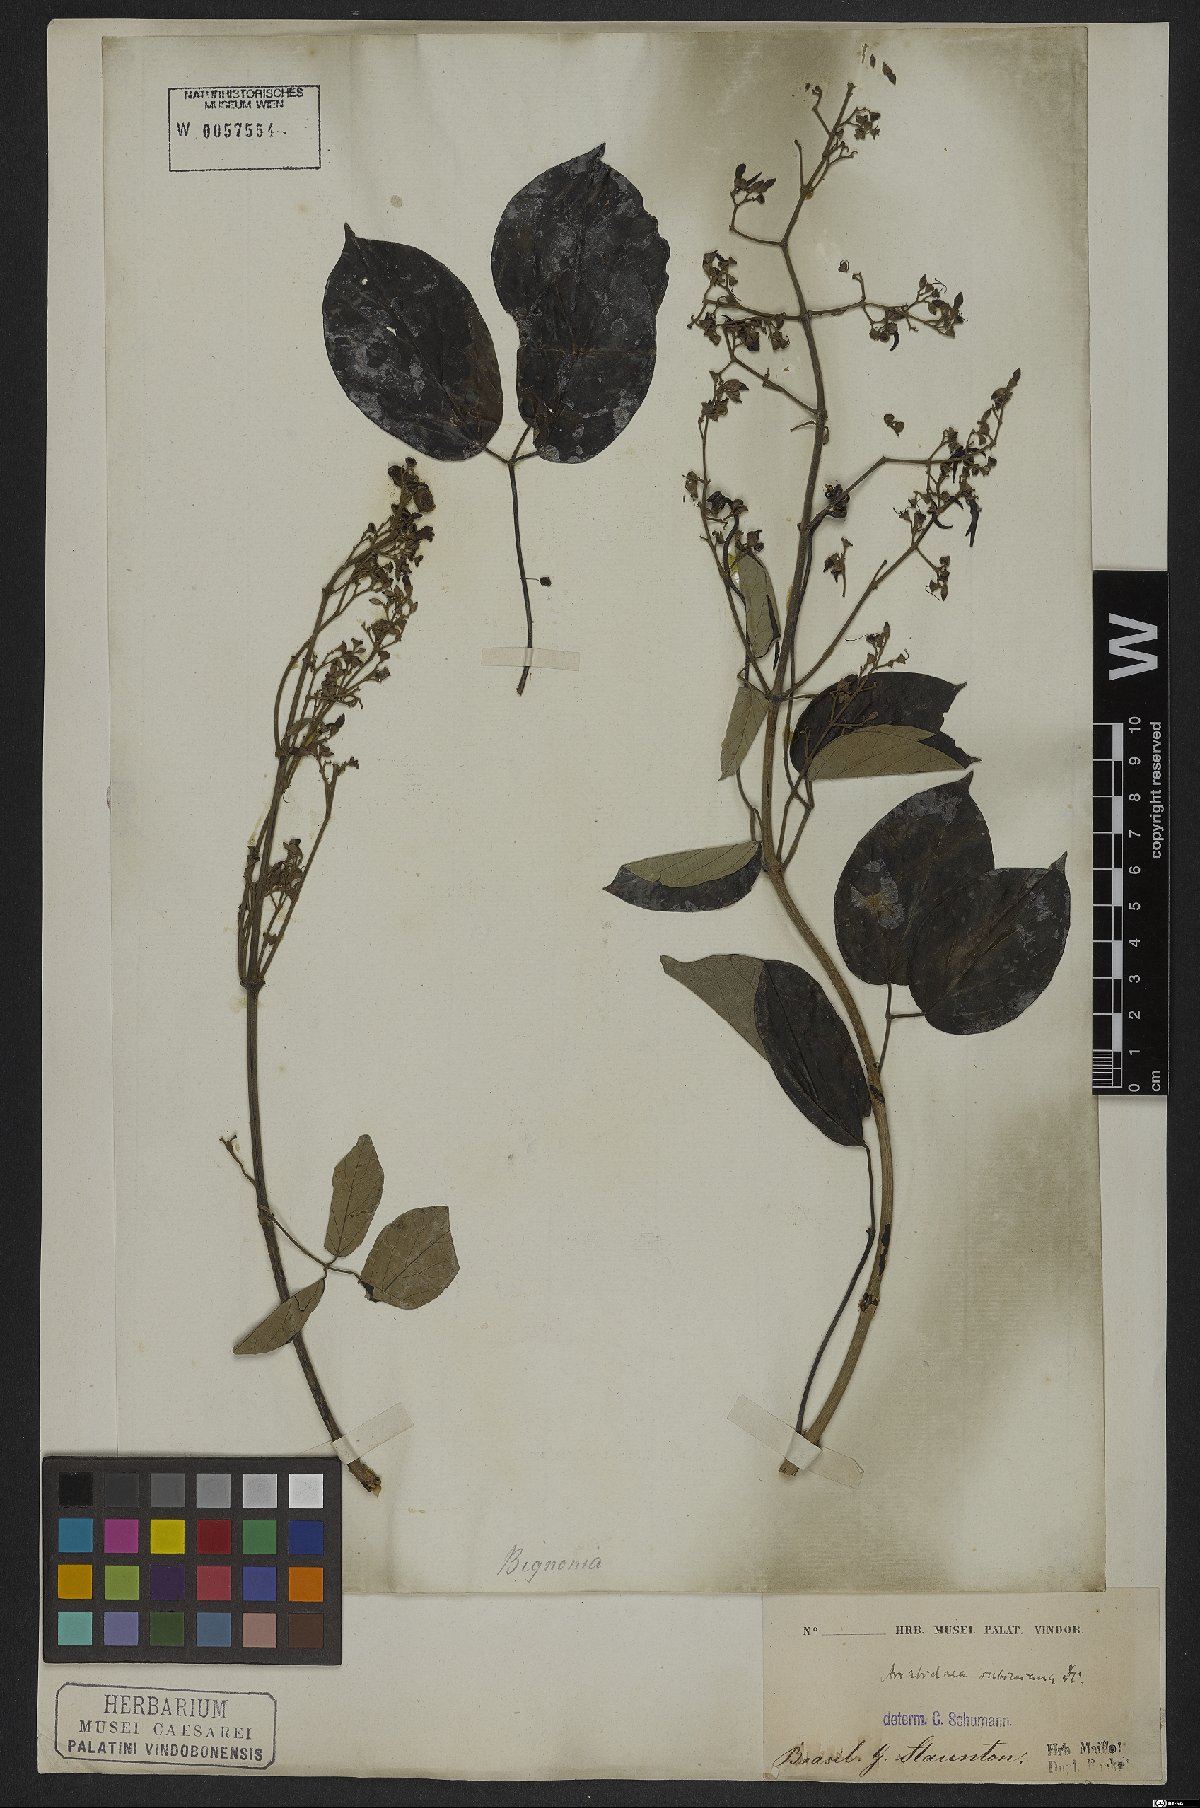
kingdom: Plantae
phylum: Tracheophyta
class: Magnoliopsida
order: Lamiales
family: Bignoniaceae
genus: Fridericia
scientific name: Fridericia subincana
